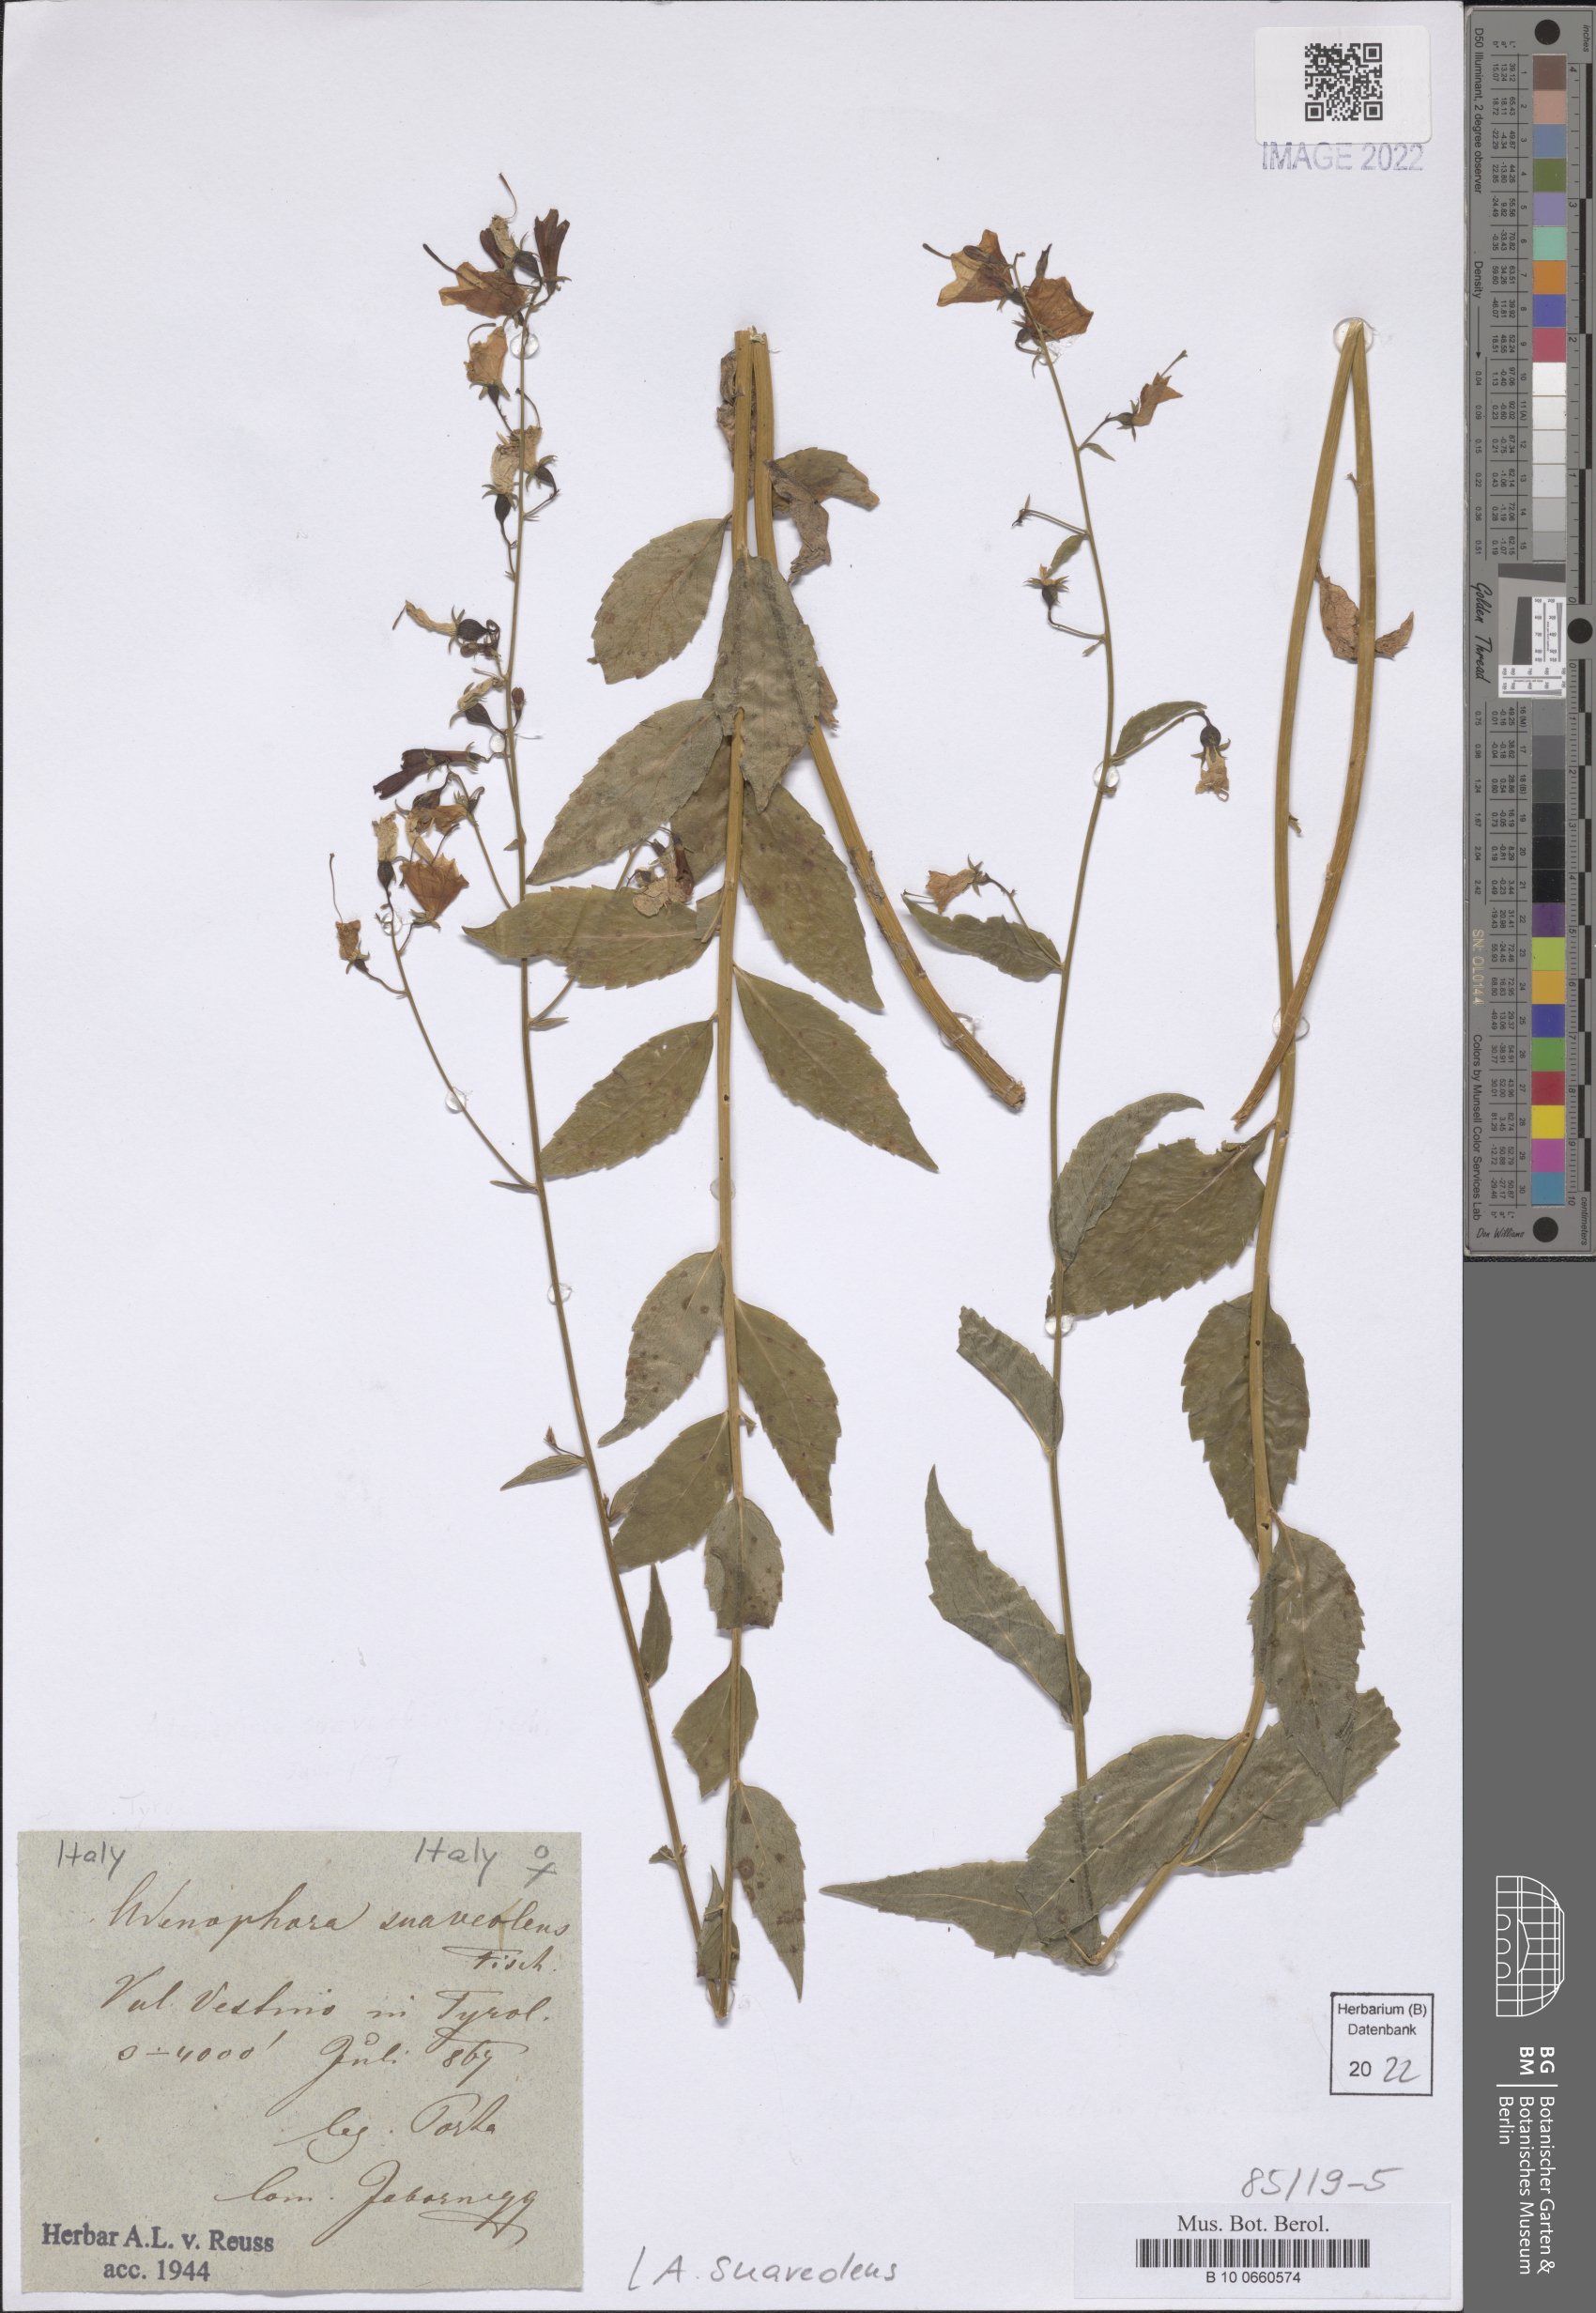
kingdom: Plantae
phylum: Tracheophyta
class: Magnoliopsida
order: Asterales
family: Campanulaceae
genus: Adenophora
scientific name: Adenophora liliifolia
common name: Lilyleaf ladybells
